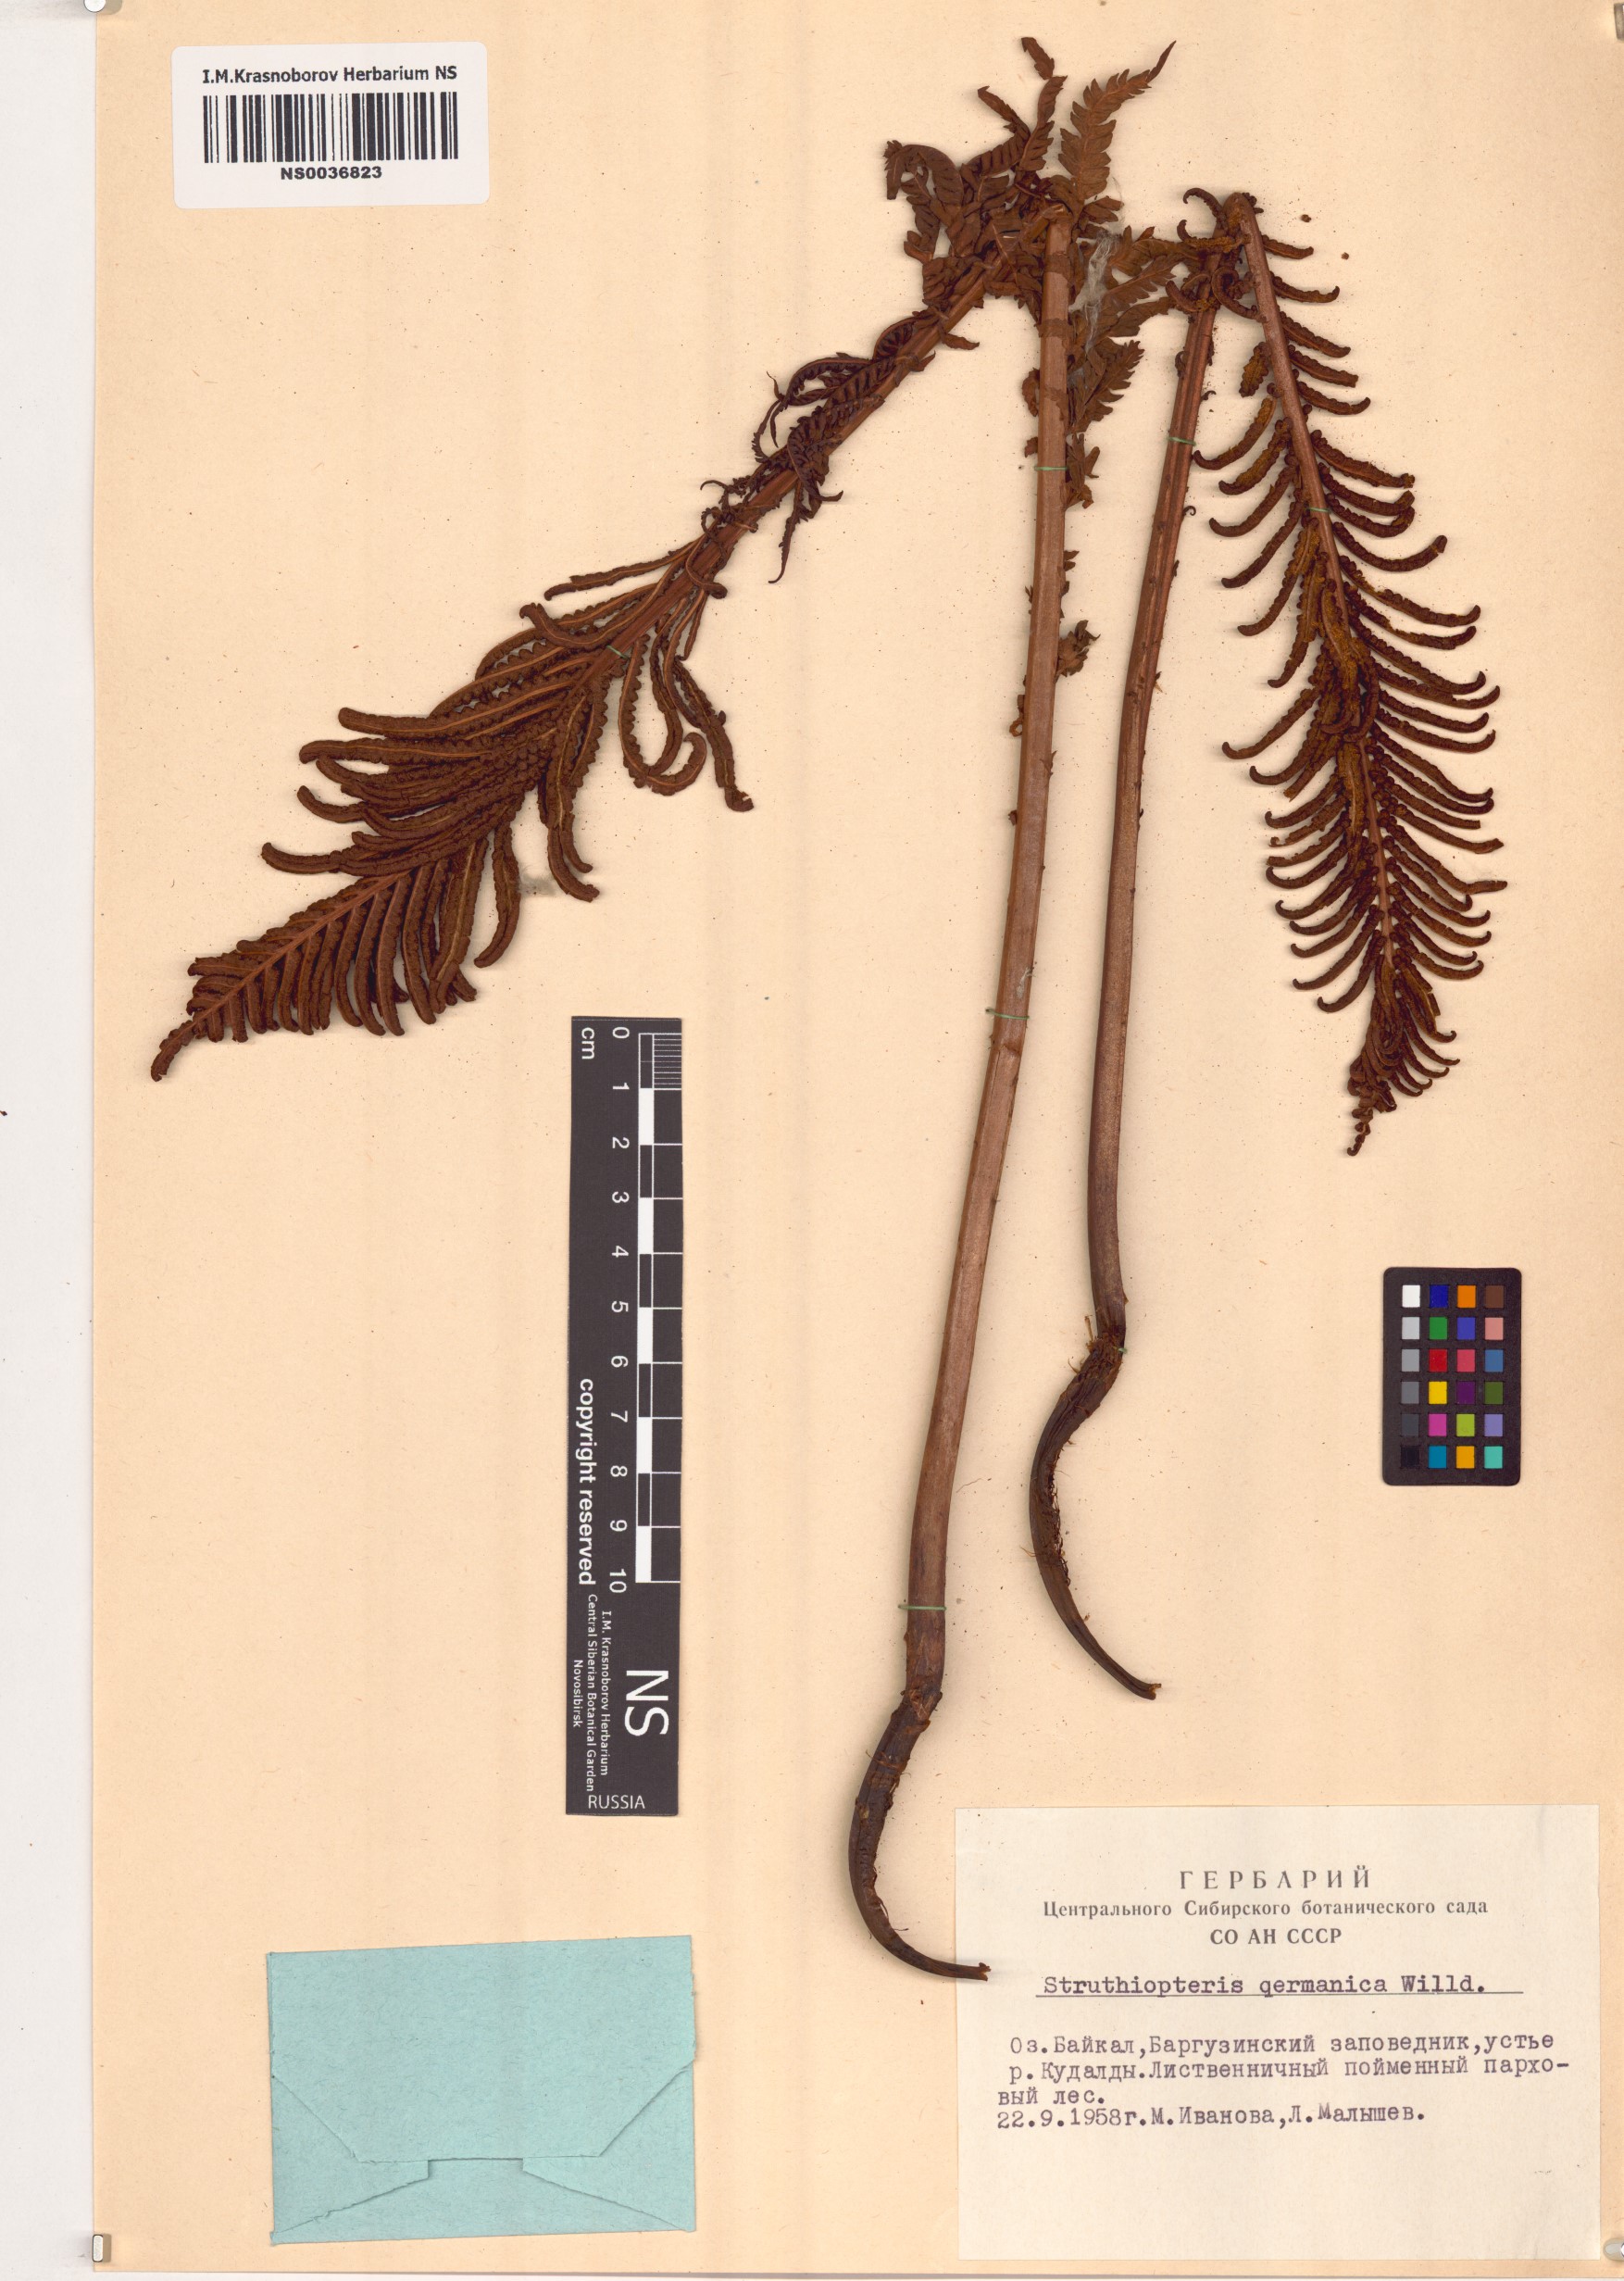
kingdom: Plantae
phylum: Tracheophyta
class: Polypodiopsida
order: Polypodiales
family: Onocleaceae
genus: Matteuccia
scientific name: Matteuccia struthiopteris
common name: Ostrich fern
